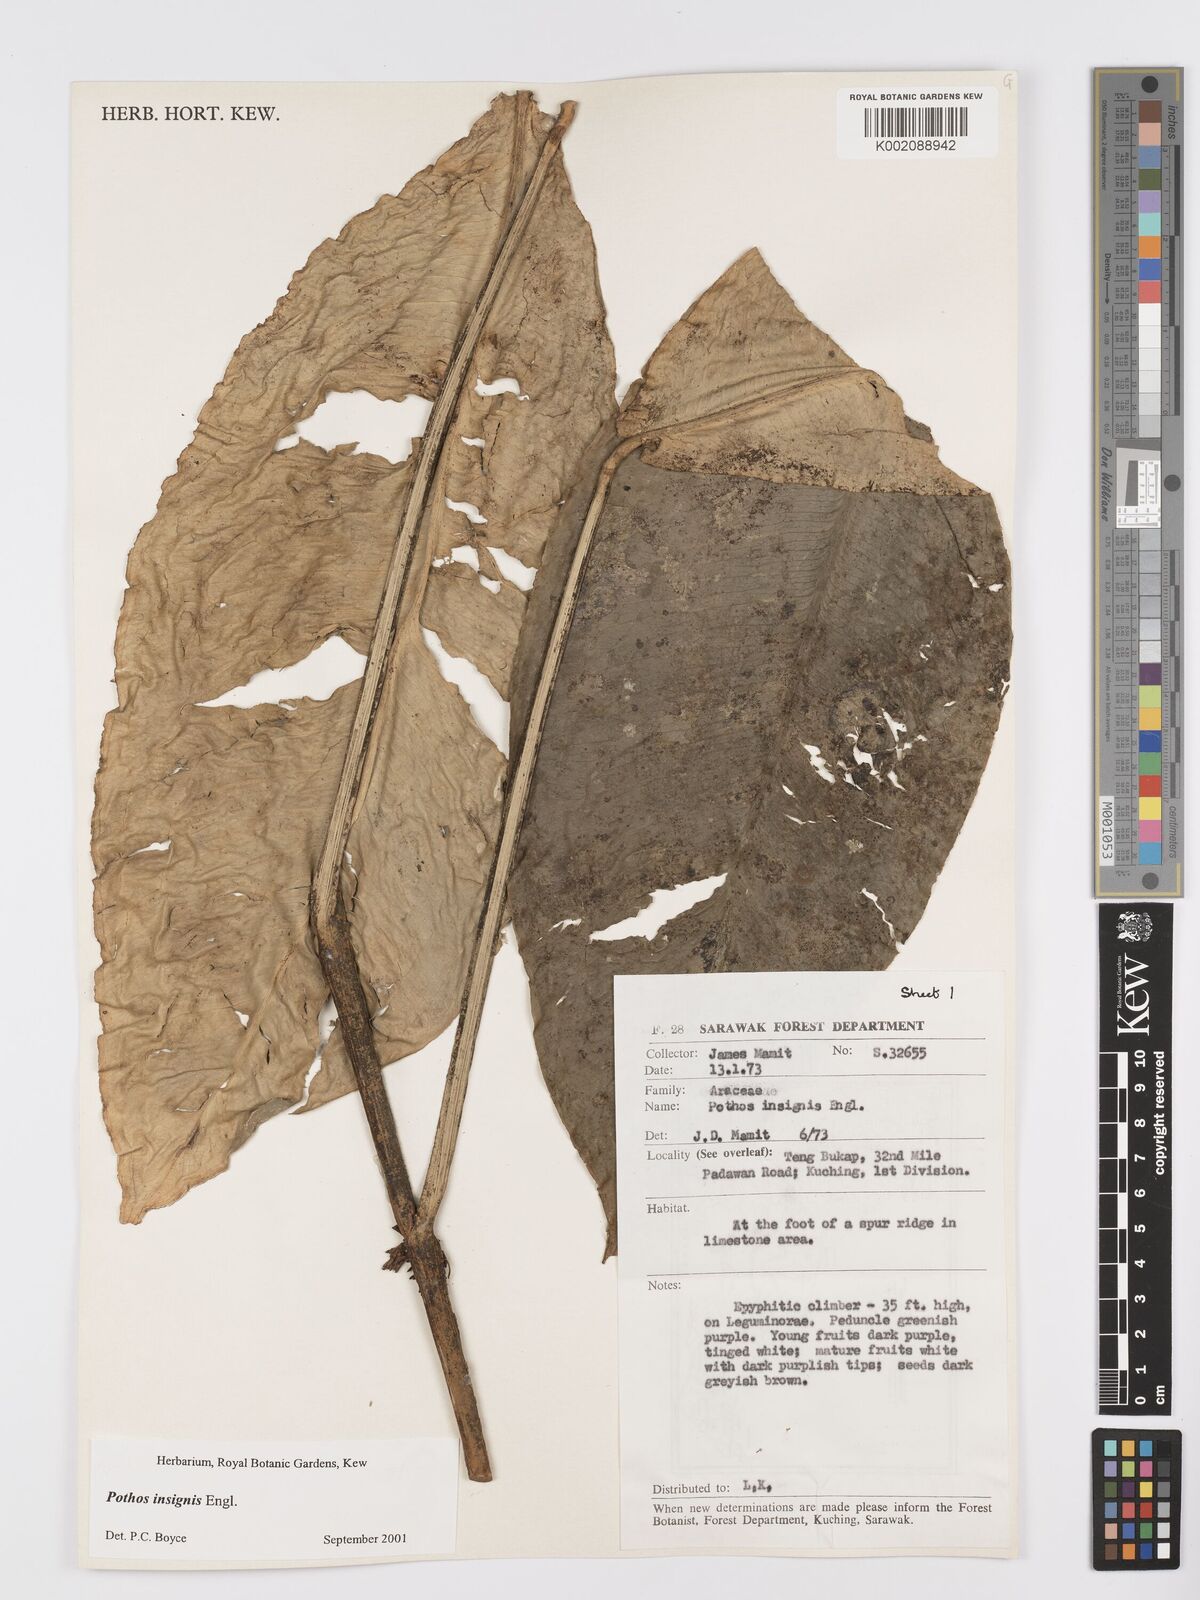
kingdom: Plantae
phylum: Tracheophyta
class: Liliopsida
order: Alismatales
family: Araceae
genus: Pothos
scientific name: Pothos insignis
